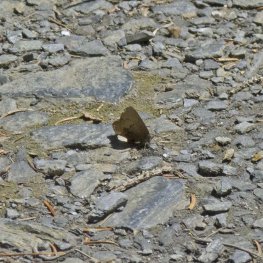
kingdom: Animalia
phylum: Arthropoda
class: Insecta
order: Lepidoptera
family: Lycaenidae
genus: Incisalia
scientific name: Incisalia irioides
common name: Brown Elfin
